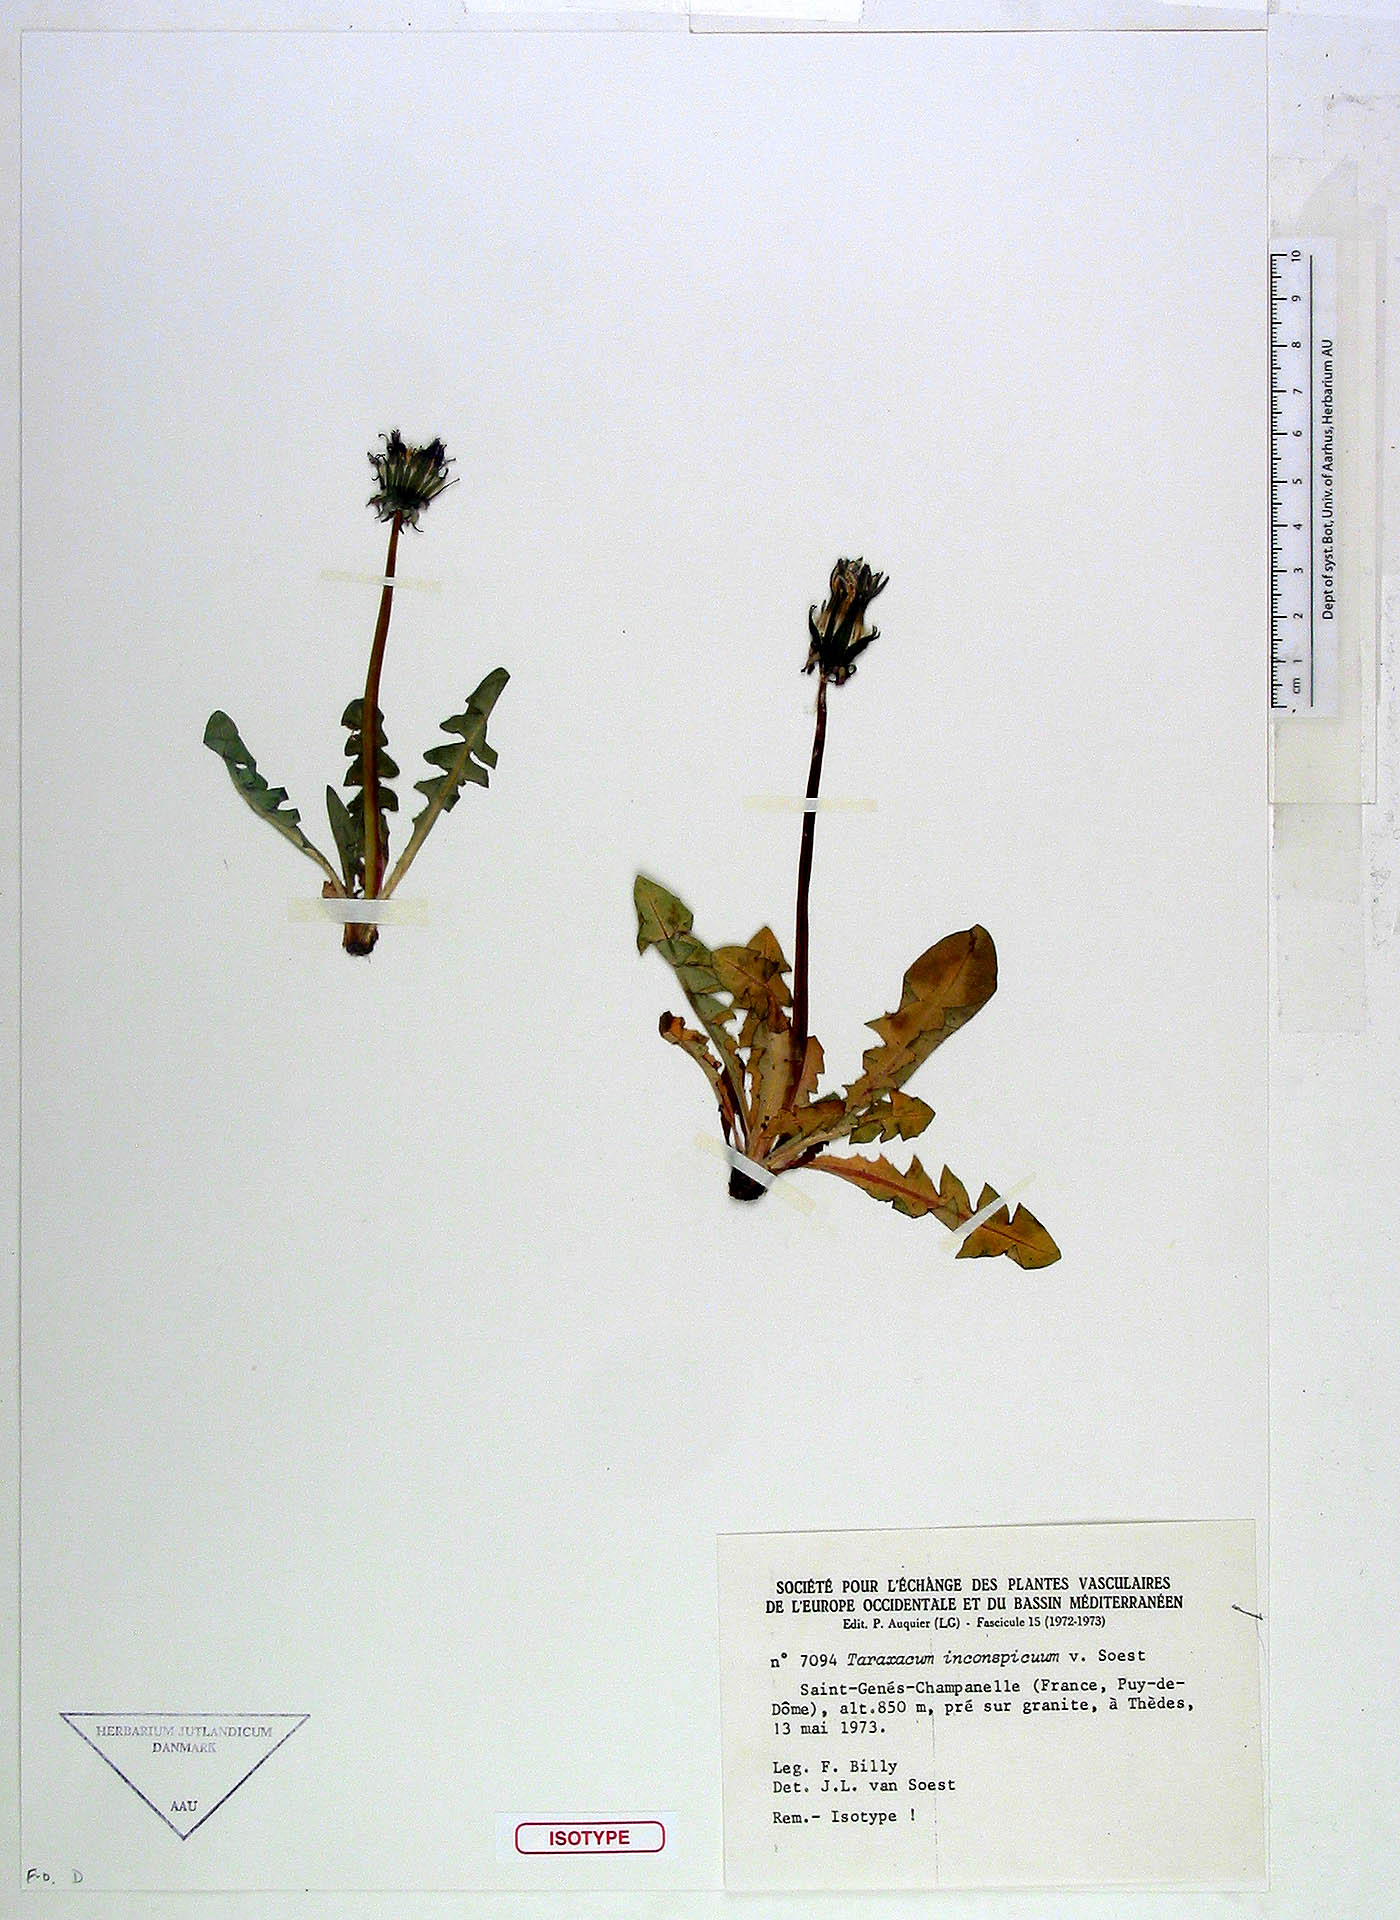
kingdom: Plantae
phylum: Tracheophyta
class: Magnoliopsida
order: Asterales
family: Asteraceae
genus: Taraxacum
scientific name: Taraxacum inconspicuum
